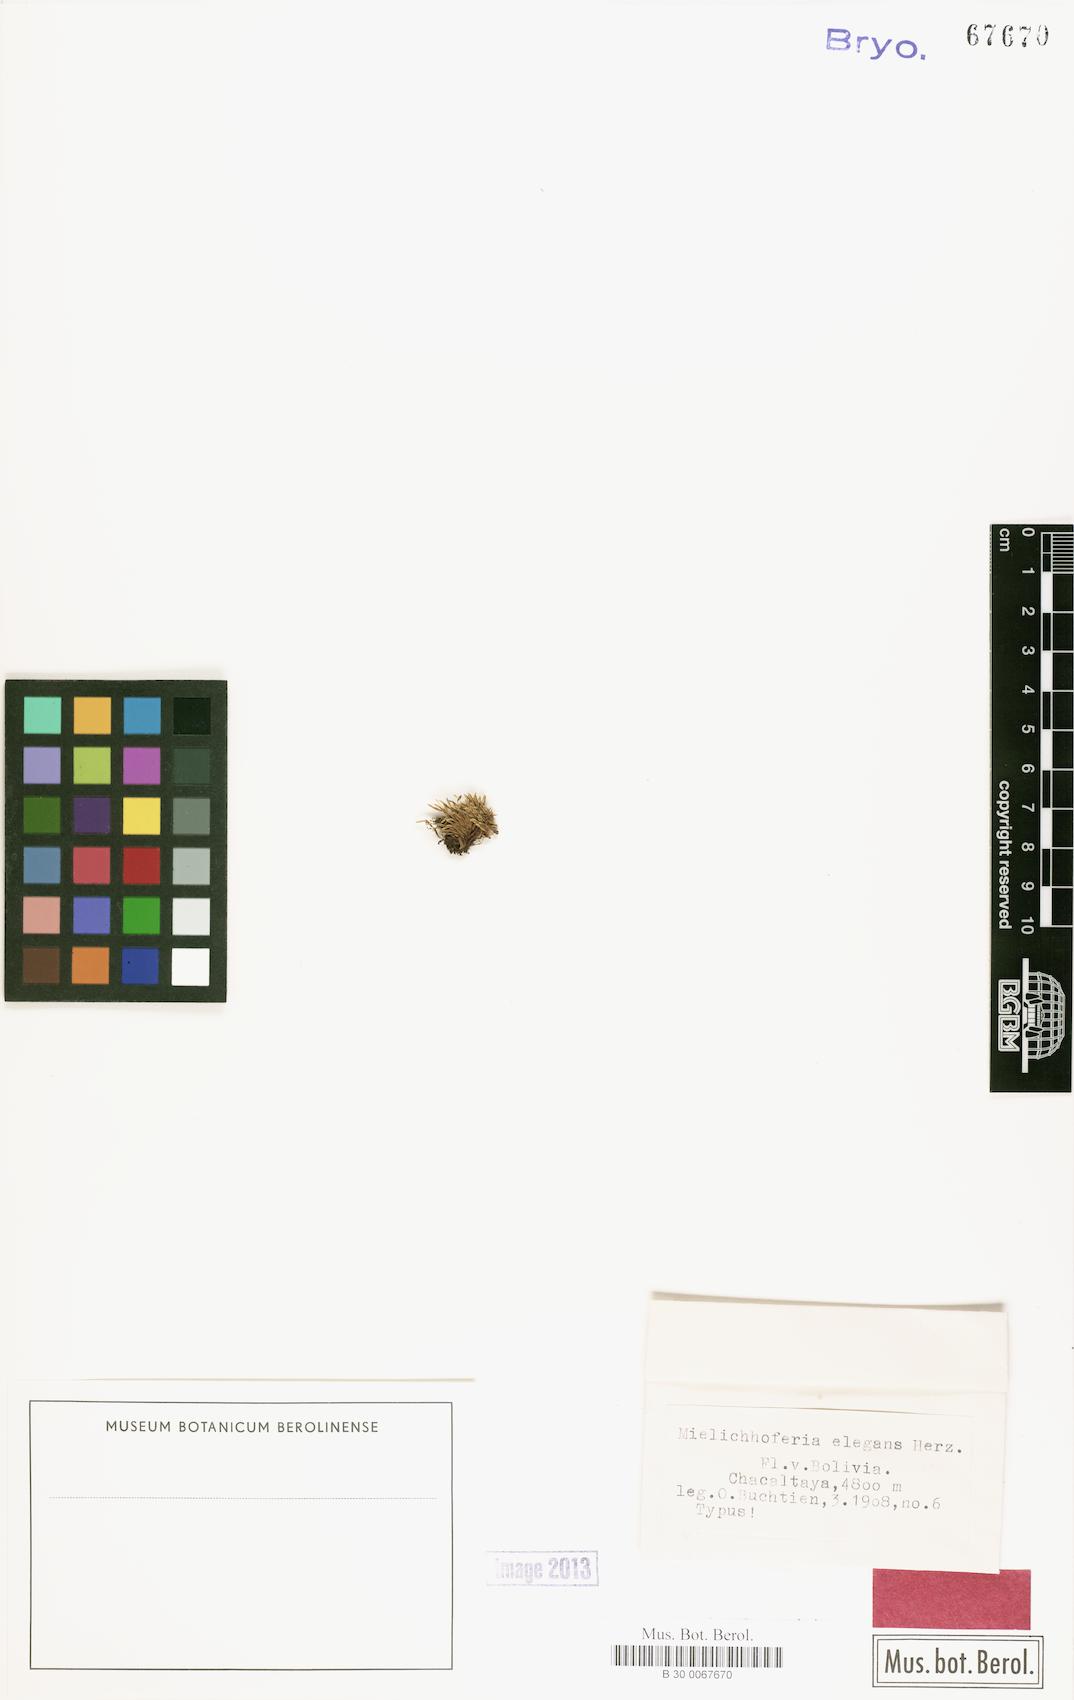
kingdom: Plantae
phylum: Bryophyta
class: Bryopsida
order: Bryales
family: Mniaceae
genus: Schizymenium
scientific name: Schizymenium bogotense
